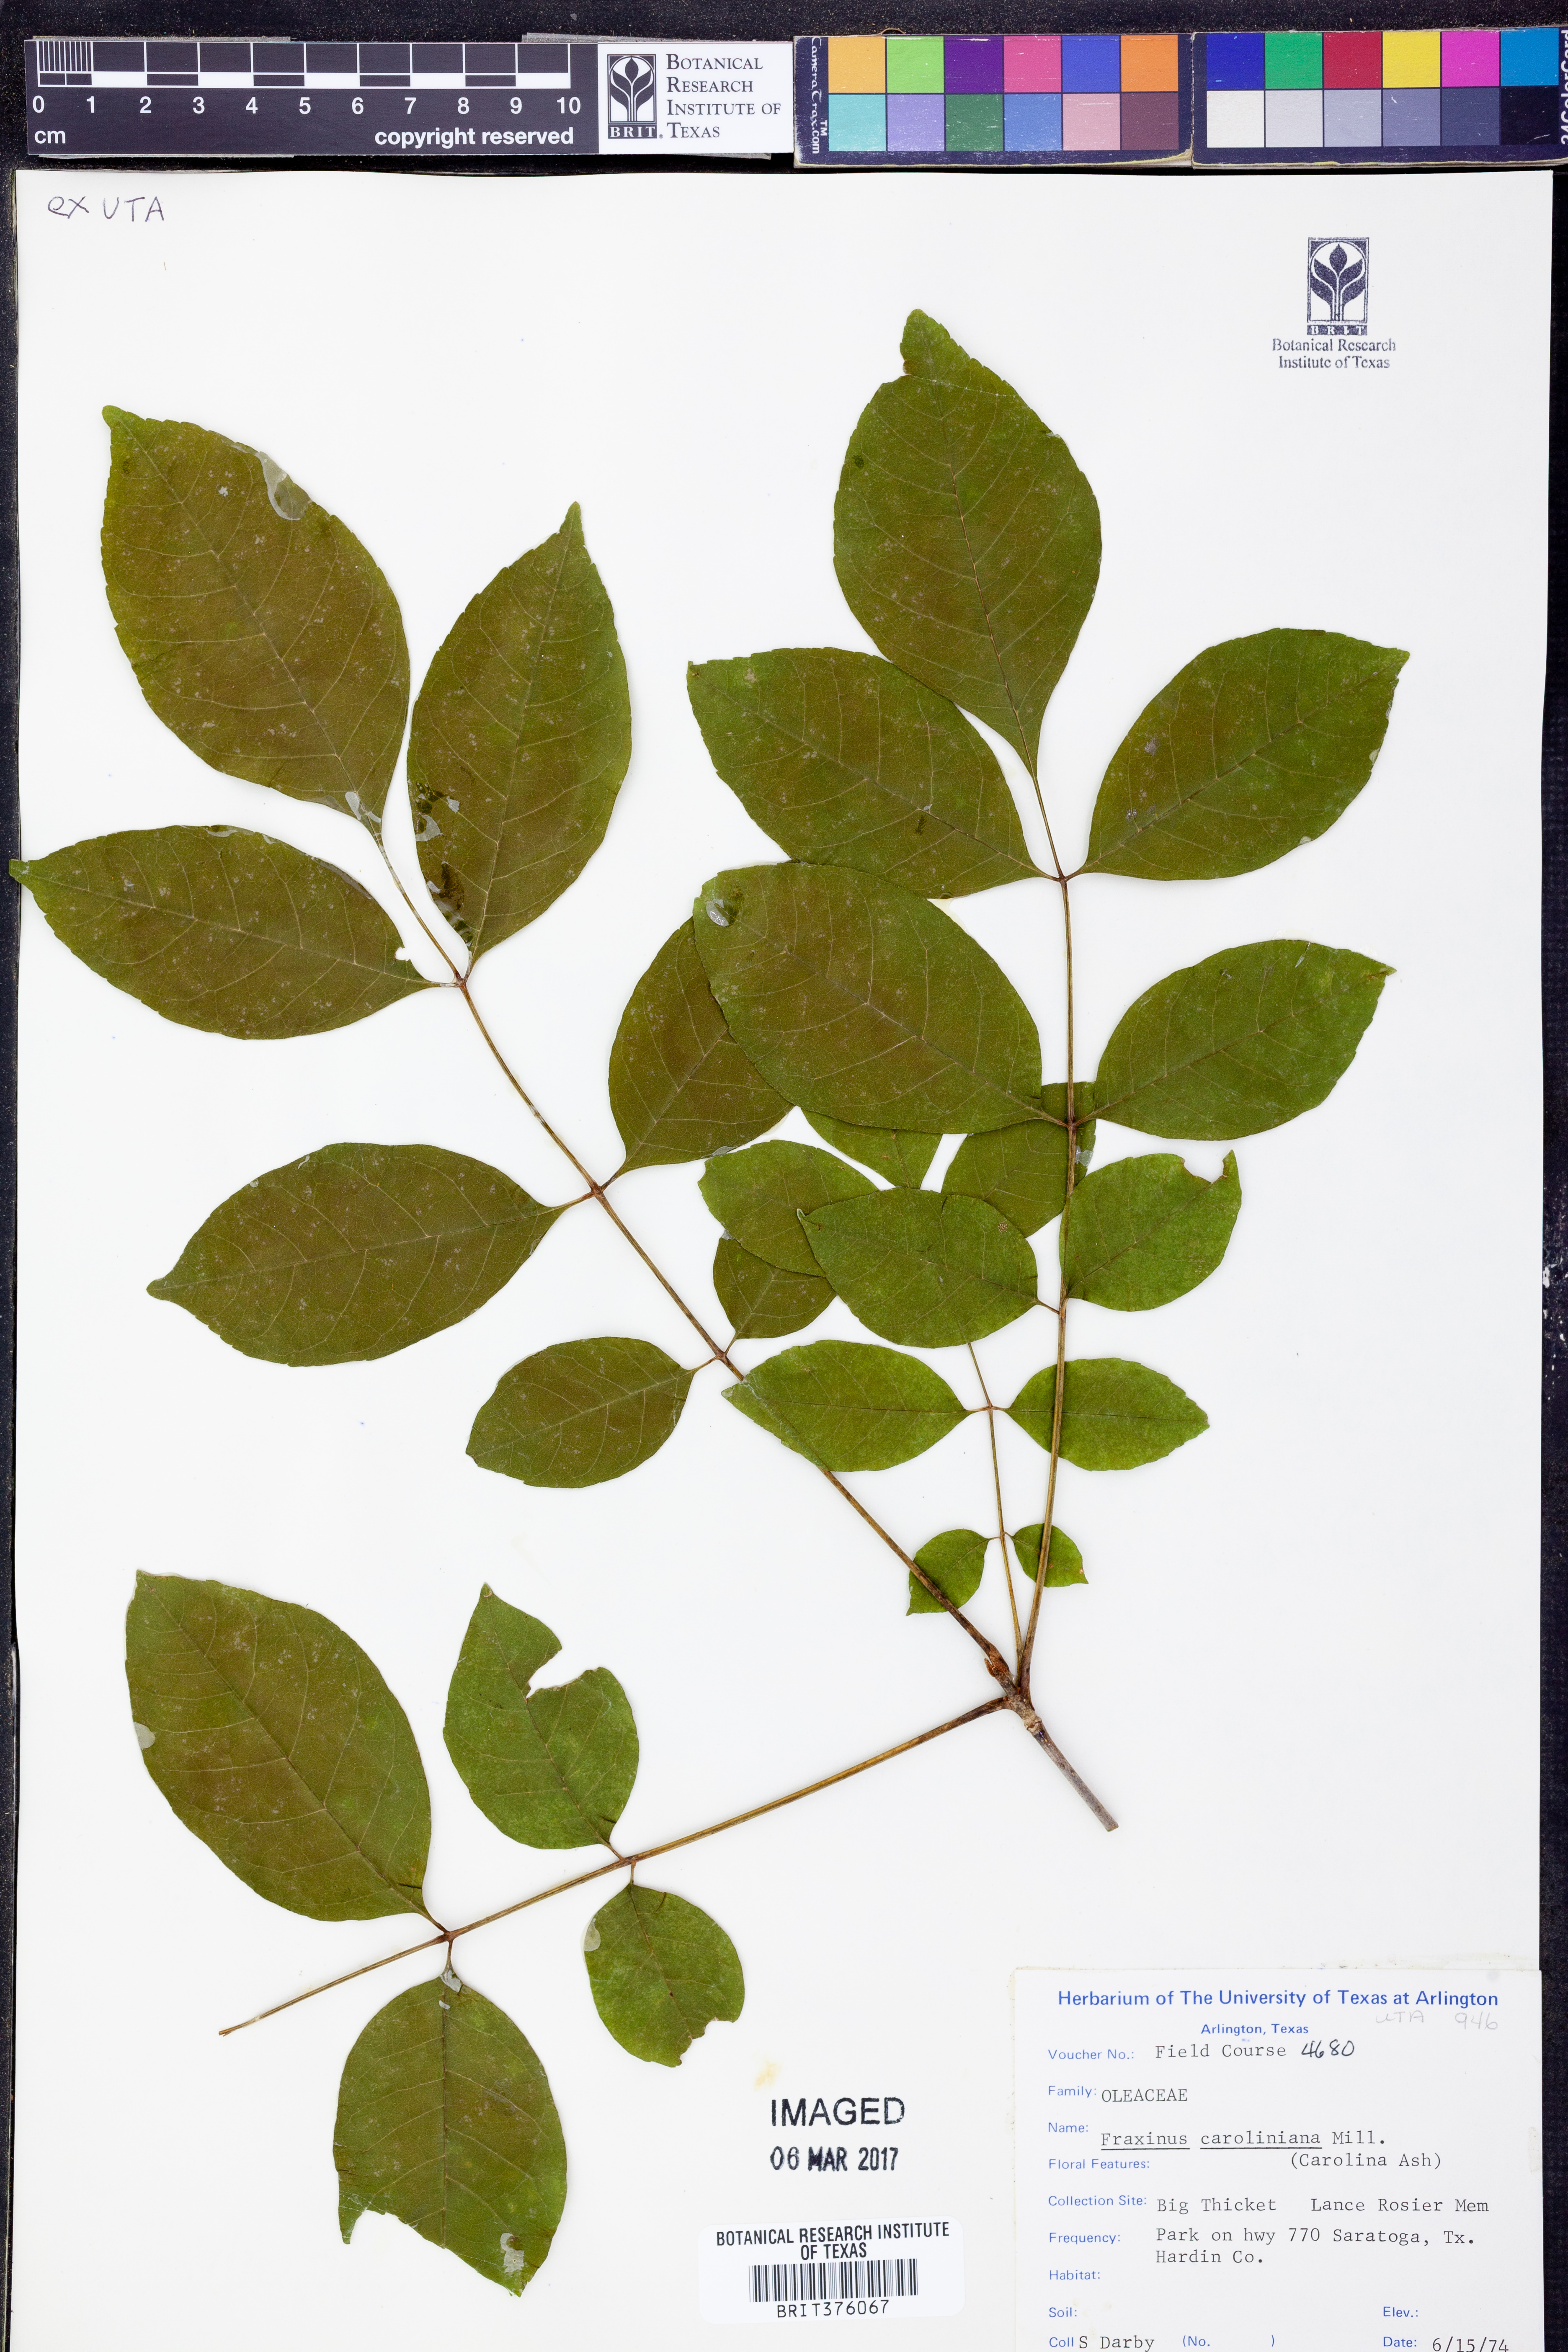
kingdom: Plantae
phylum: Tracheophyta
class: Magnoliopsida
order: Lamiales
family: Oleaceae
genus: Fraxinus
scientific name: Fraxinus caroliniana
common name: Carolina ash
